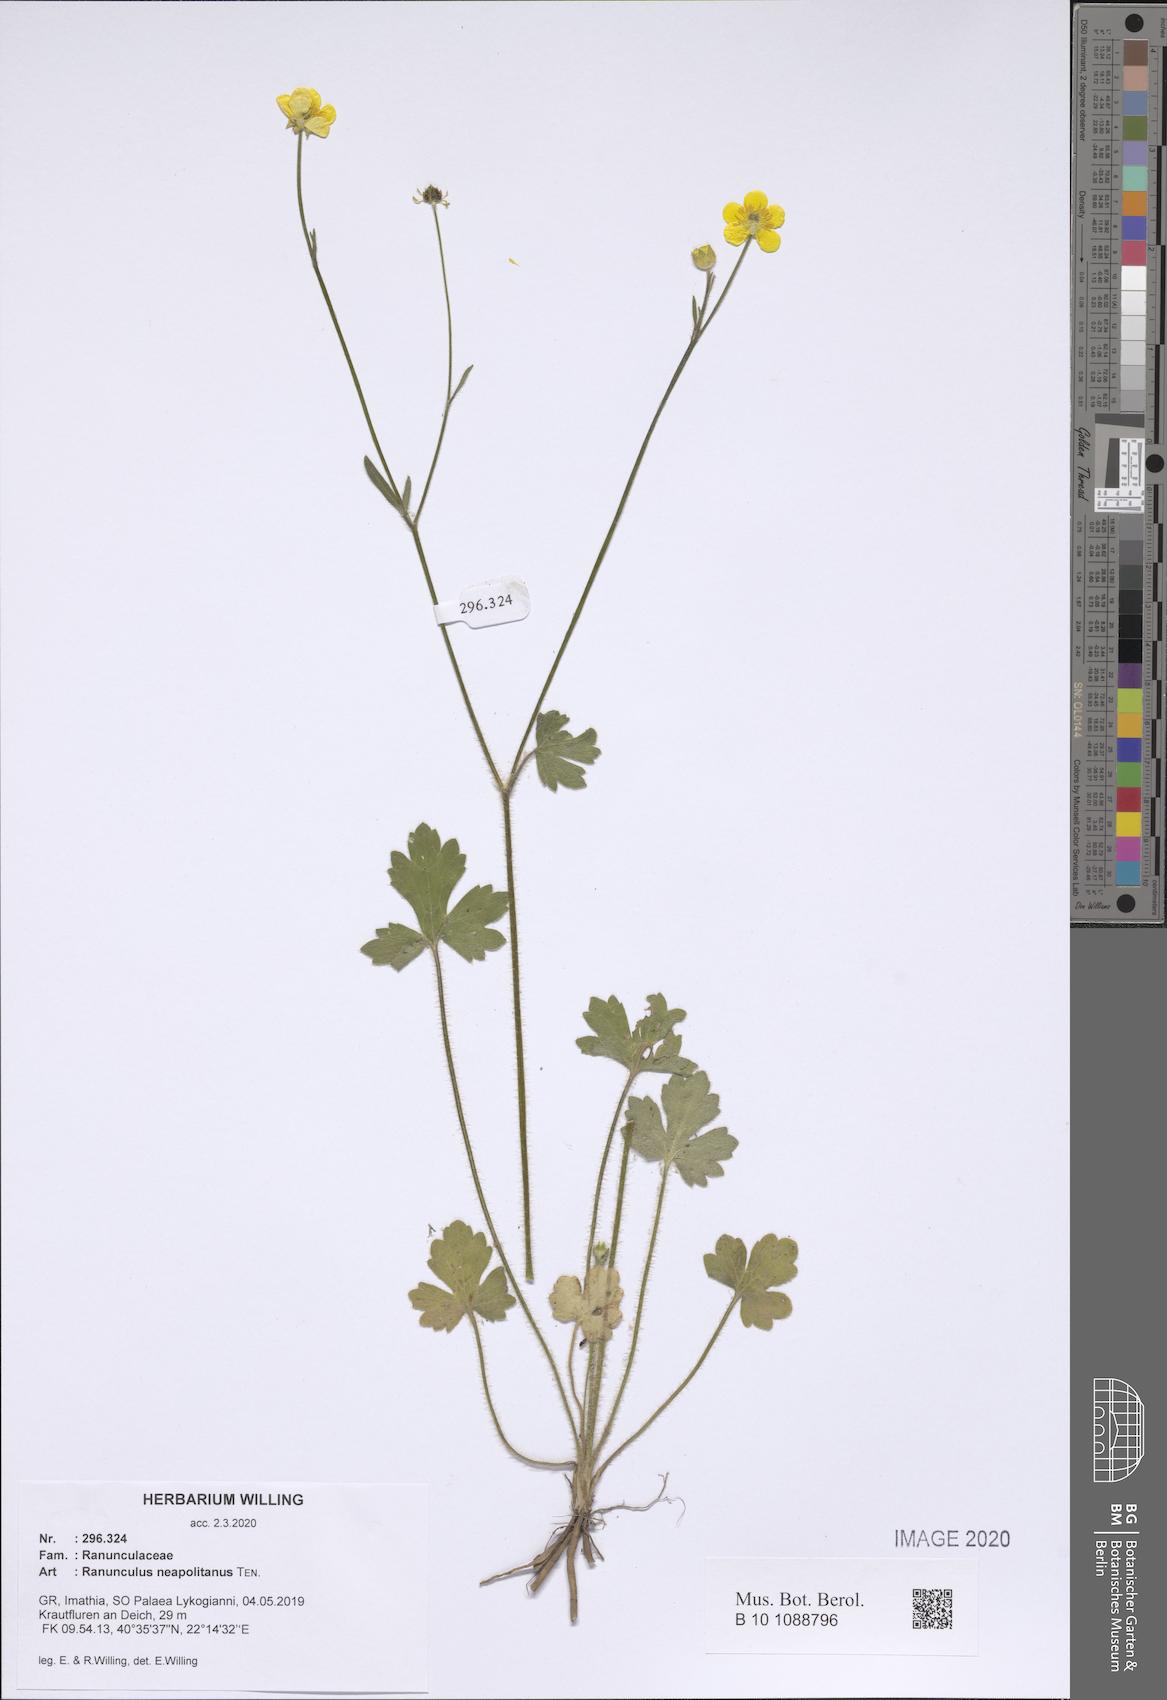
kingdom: Plantae
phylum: Tracheophyta
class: Magnoliopsida
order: Ranunculales
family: Ranunculaceae
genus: Ranunculus
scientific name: Ranunculus neapolitanus
